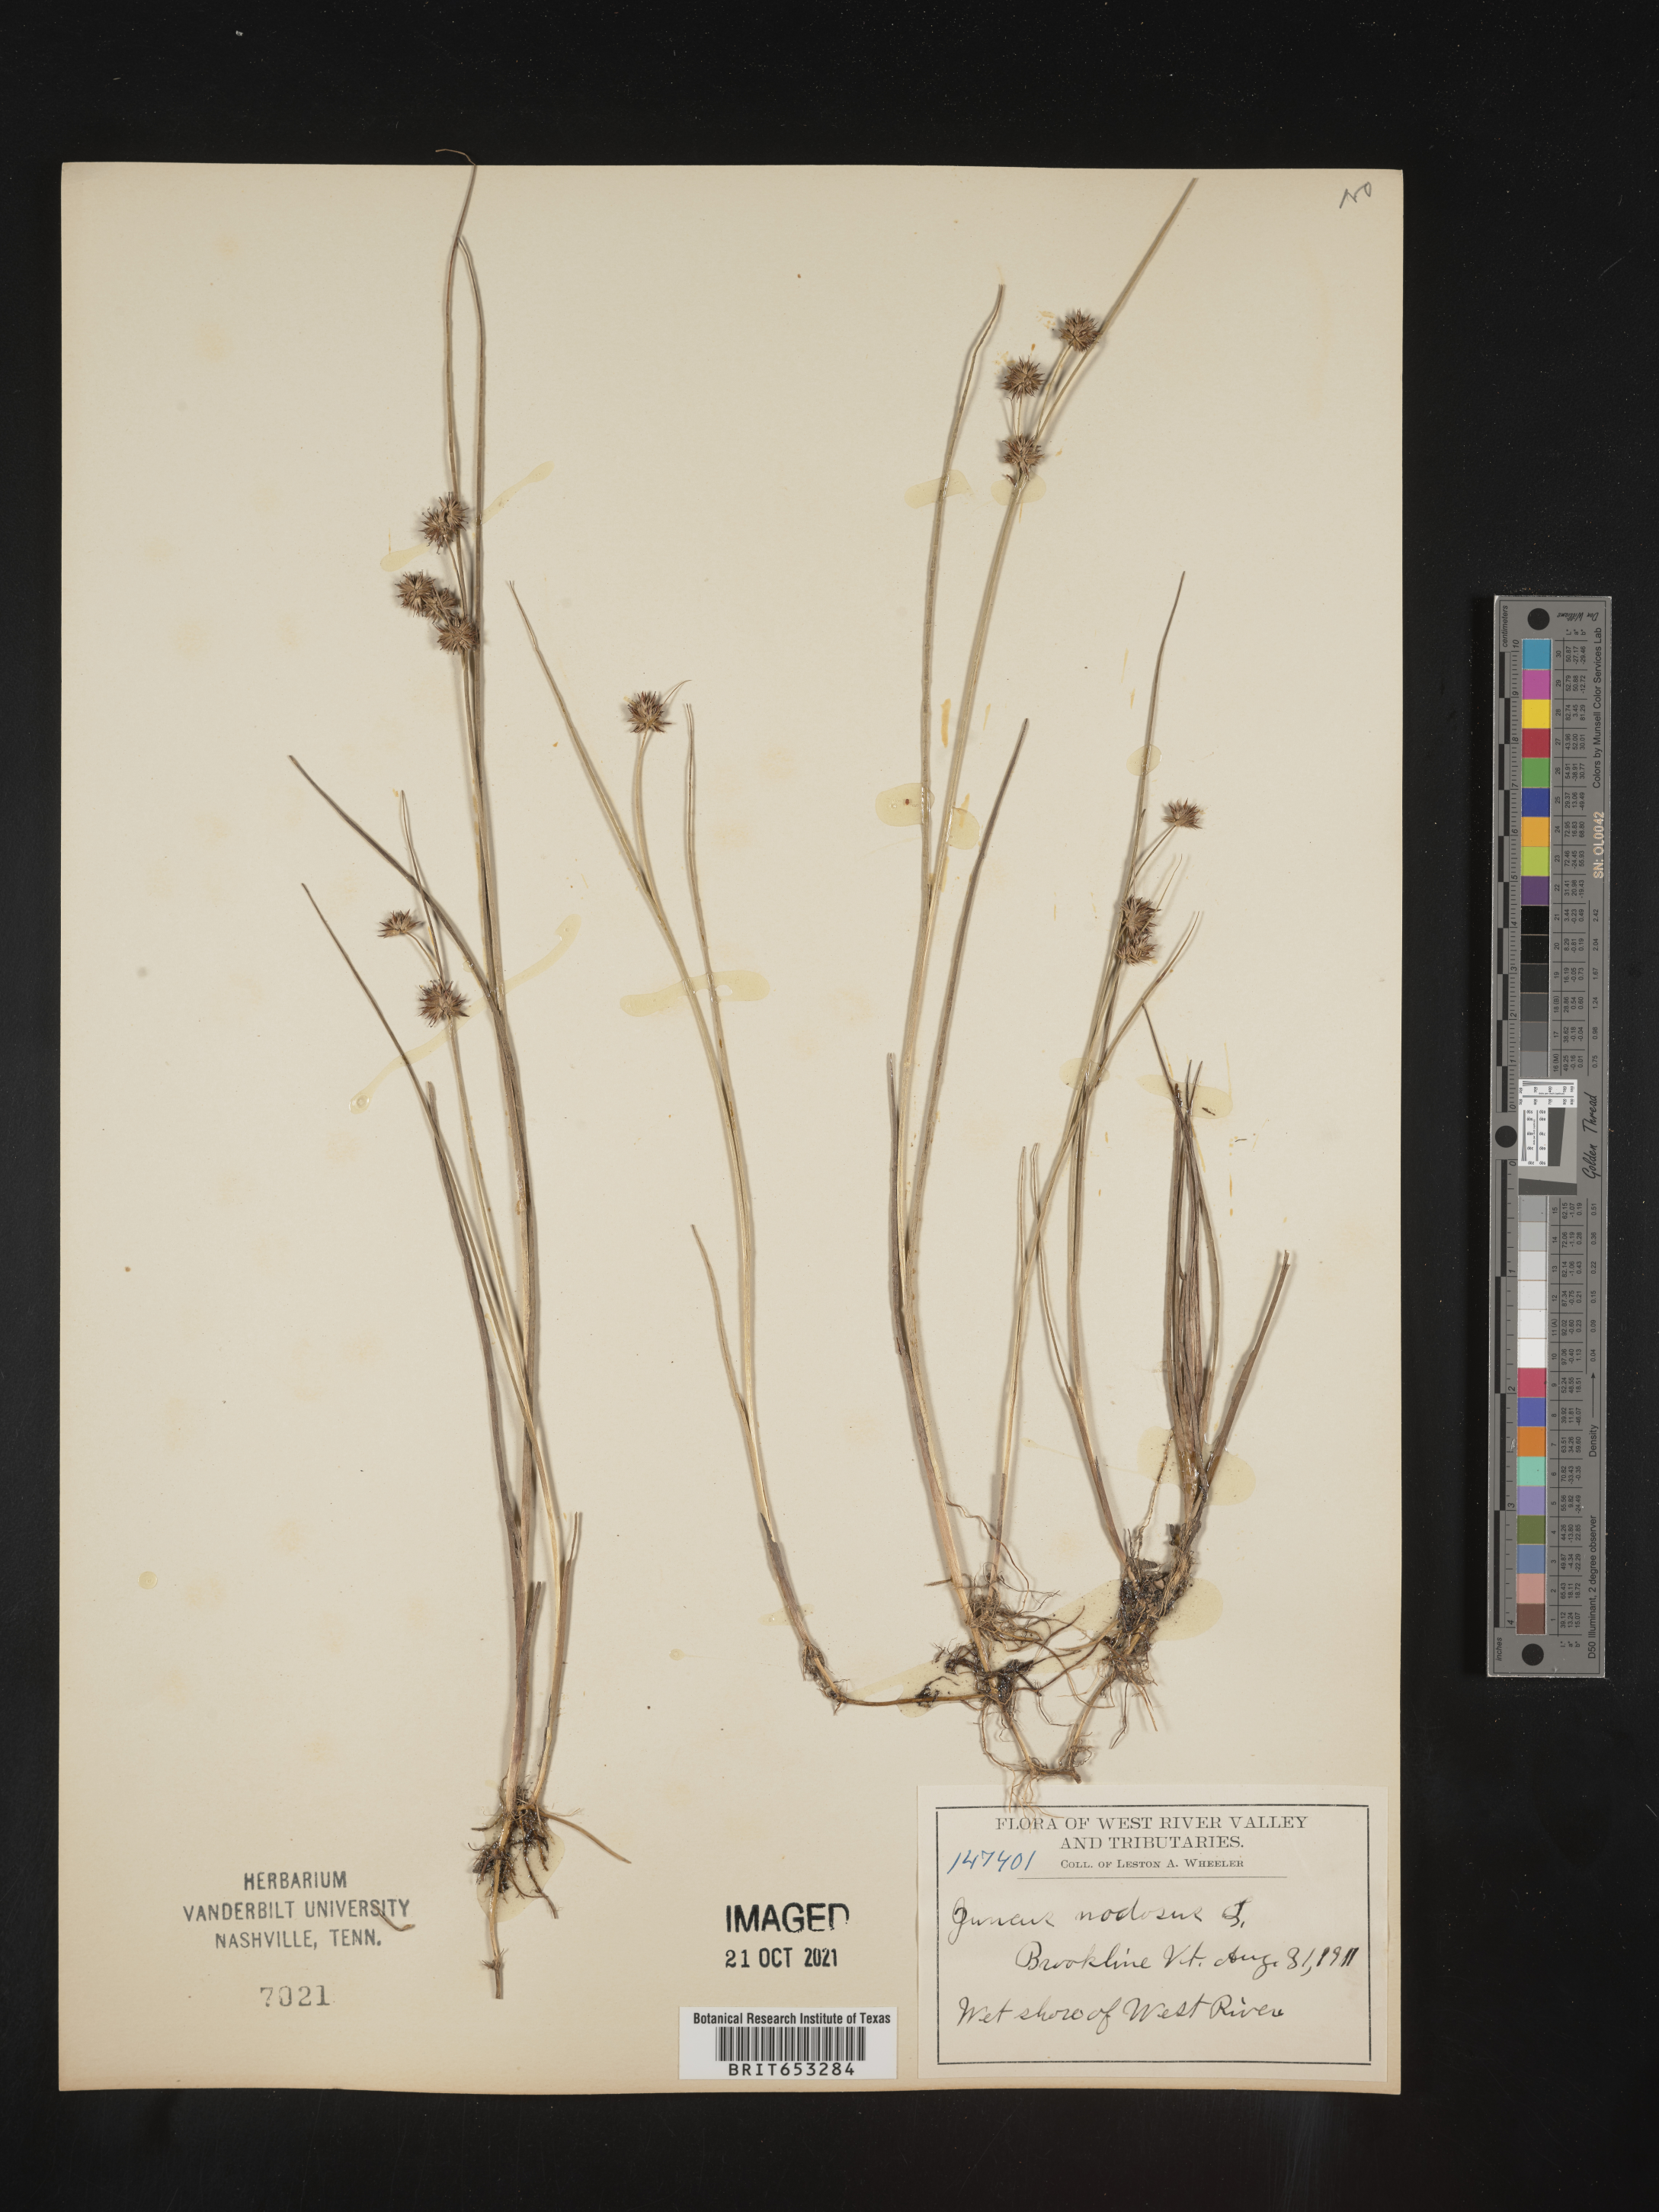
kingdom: Plantae
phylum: Tracheophyta
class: Liliopsida
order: Poales
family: Juncaceae
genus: Juncus
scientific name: Juncus nodosus
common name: Knotted rush
